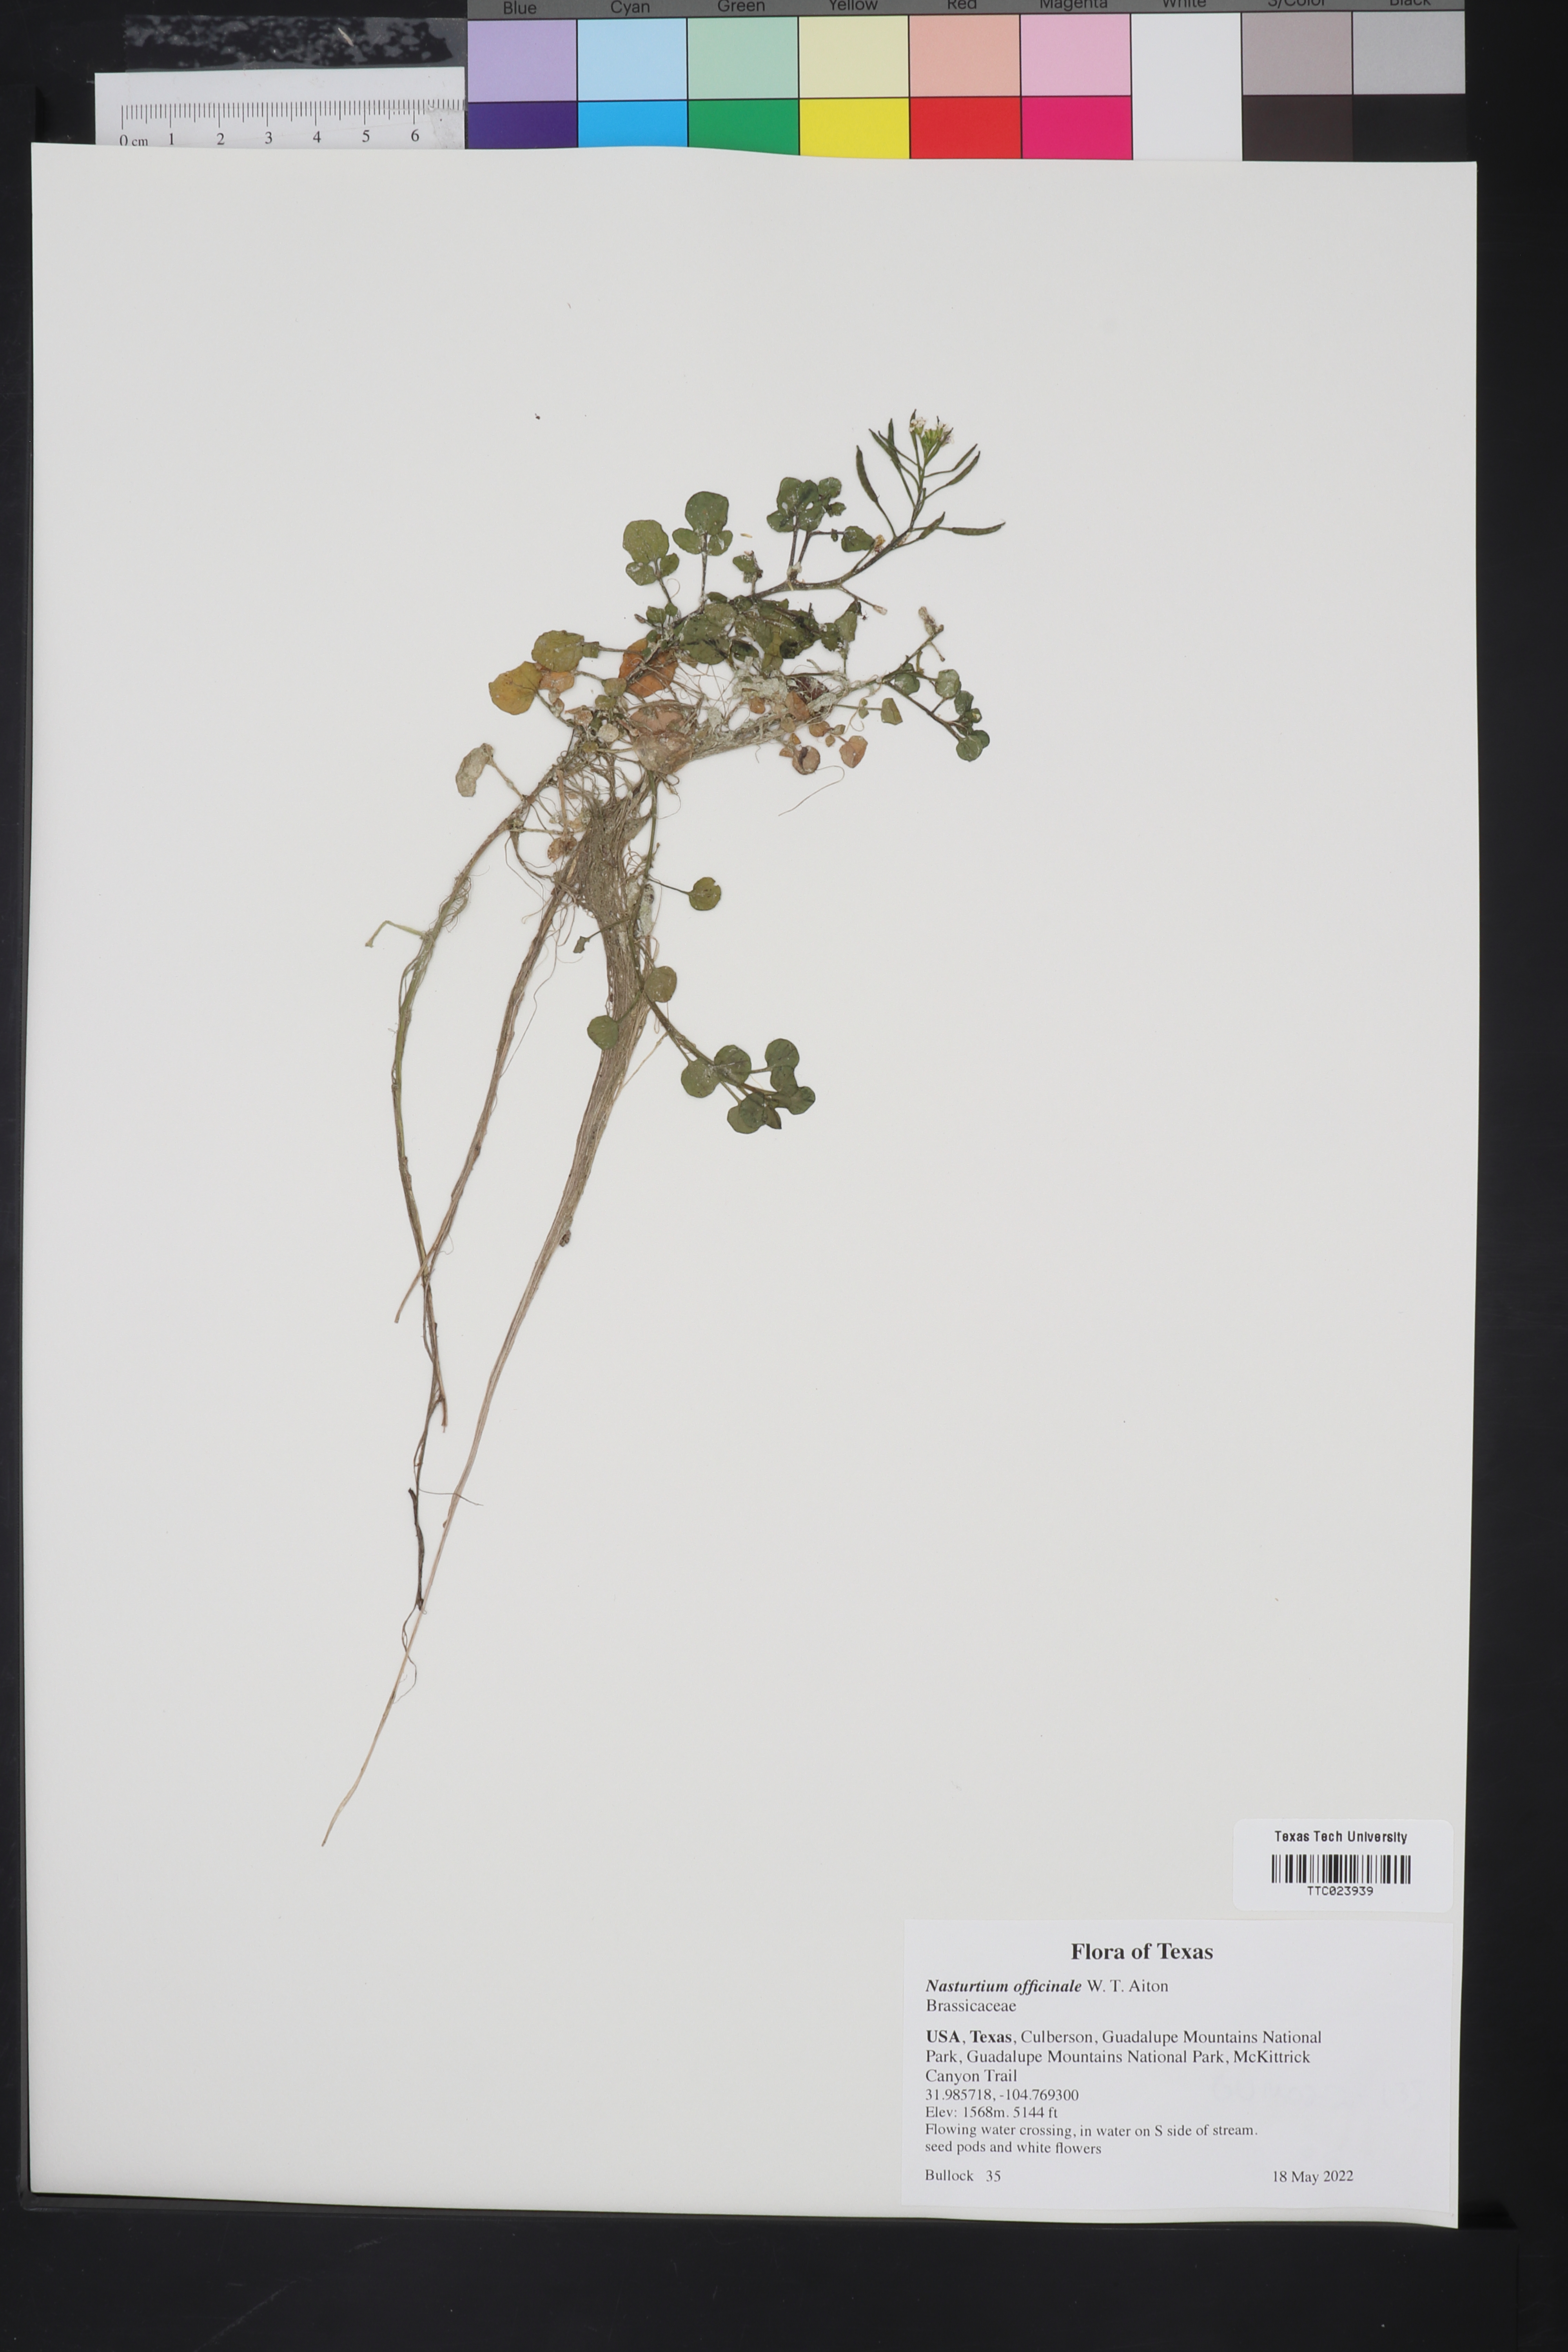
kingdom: Plantae
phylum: Tracheophyta
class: Magnoliopsida
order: Brassicales
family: Brassicaceae
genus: Nasturtium
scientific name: Nasturtium officinale
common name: Watercress
